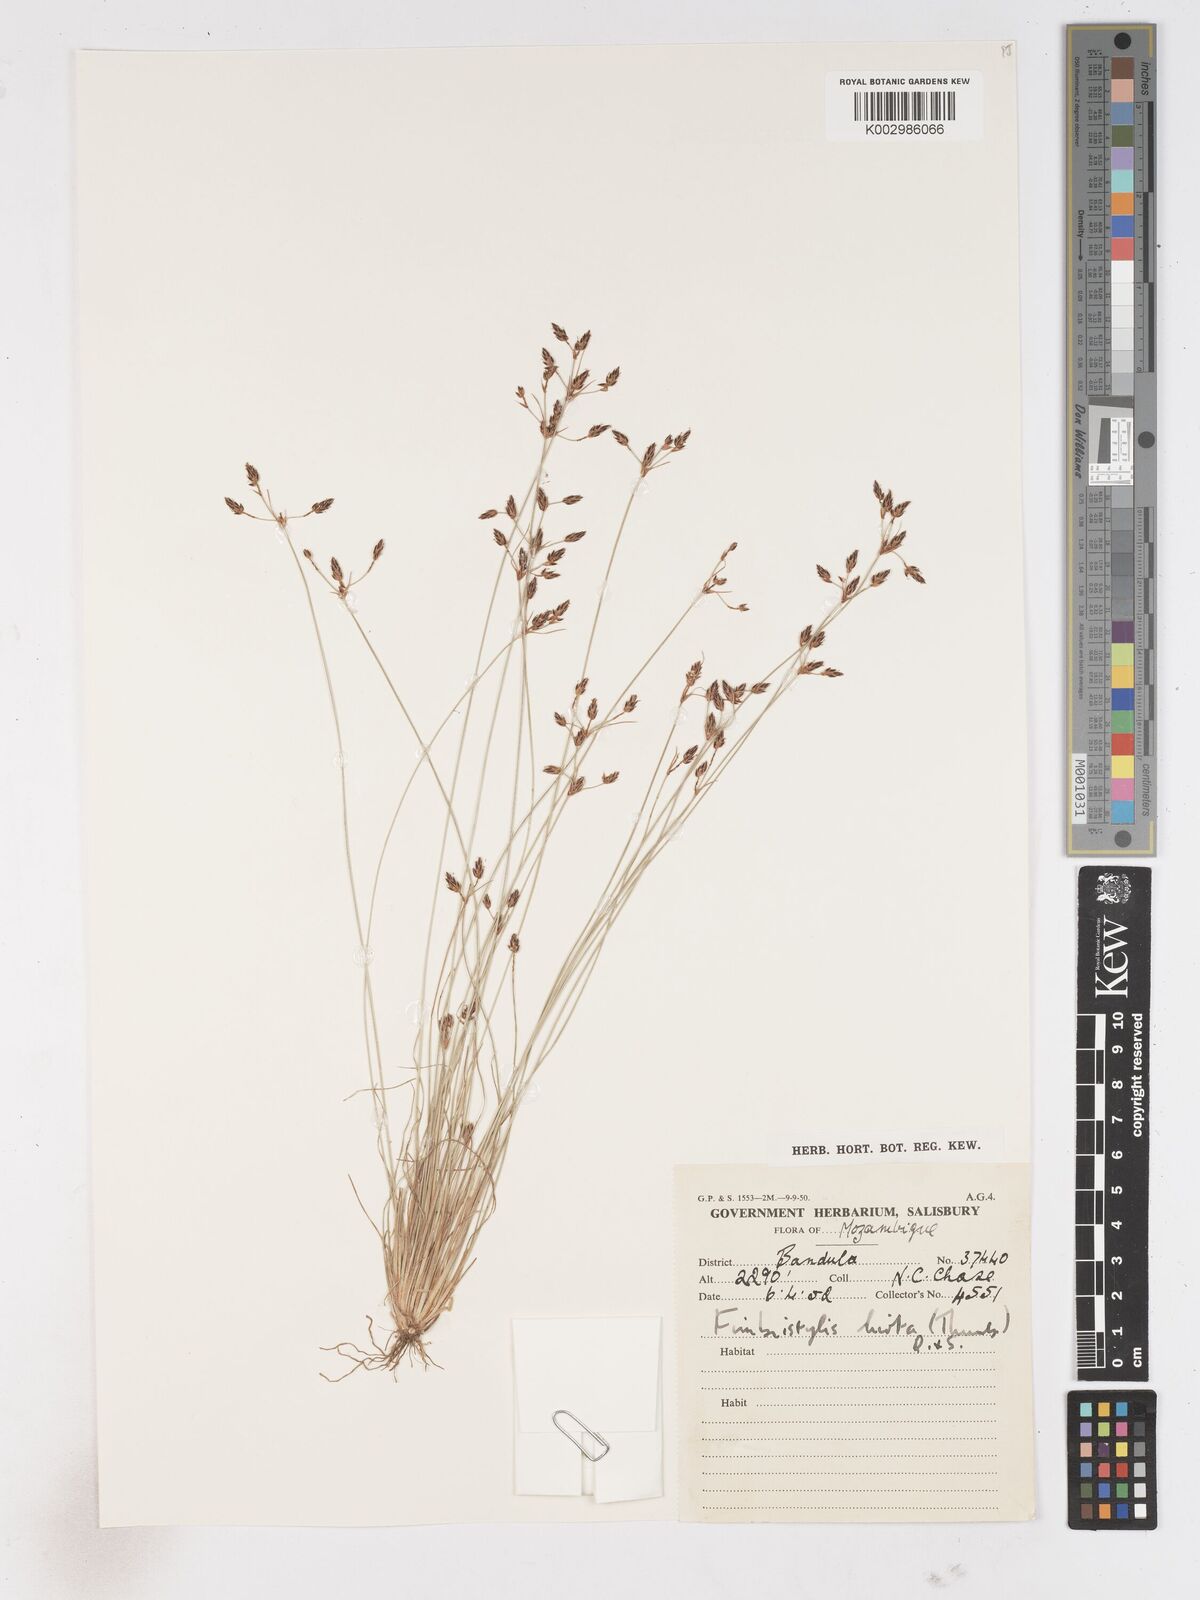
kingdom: Plantae
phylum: Tracheophyta
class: Liliopsida
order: Poales
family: Cyperaceae
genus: Fimbristylis
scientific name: Fimbristylis
